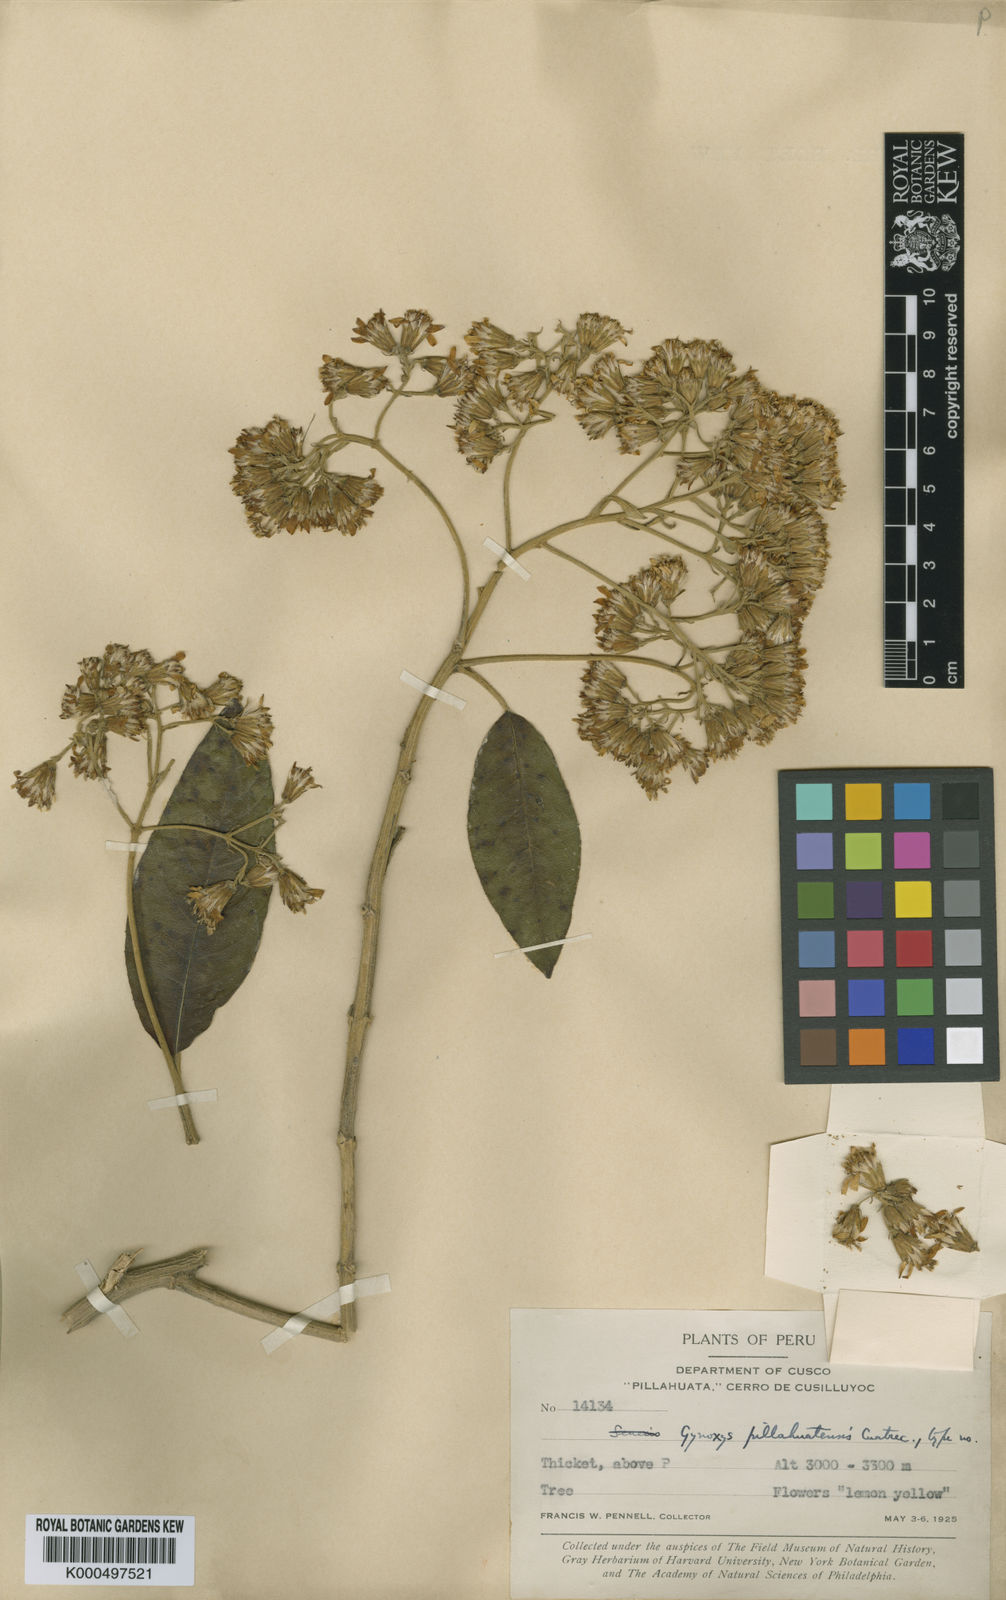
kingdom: Plantae
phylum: Tracheophyta
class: Magnoliopsida
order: Asterales
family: Asteraceae
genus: Gynoxys
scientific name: Gynoxys pillahuatensis
